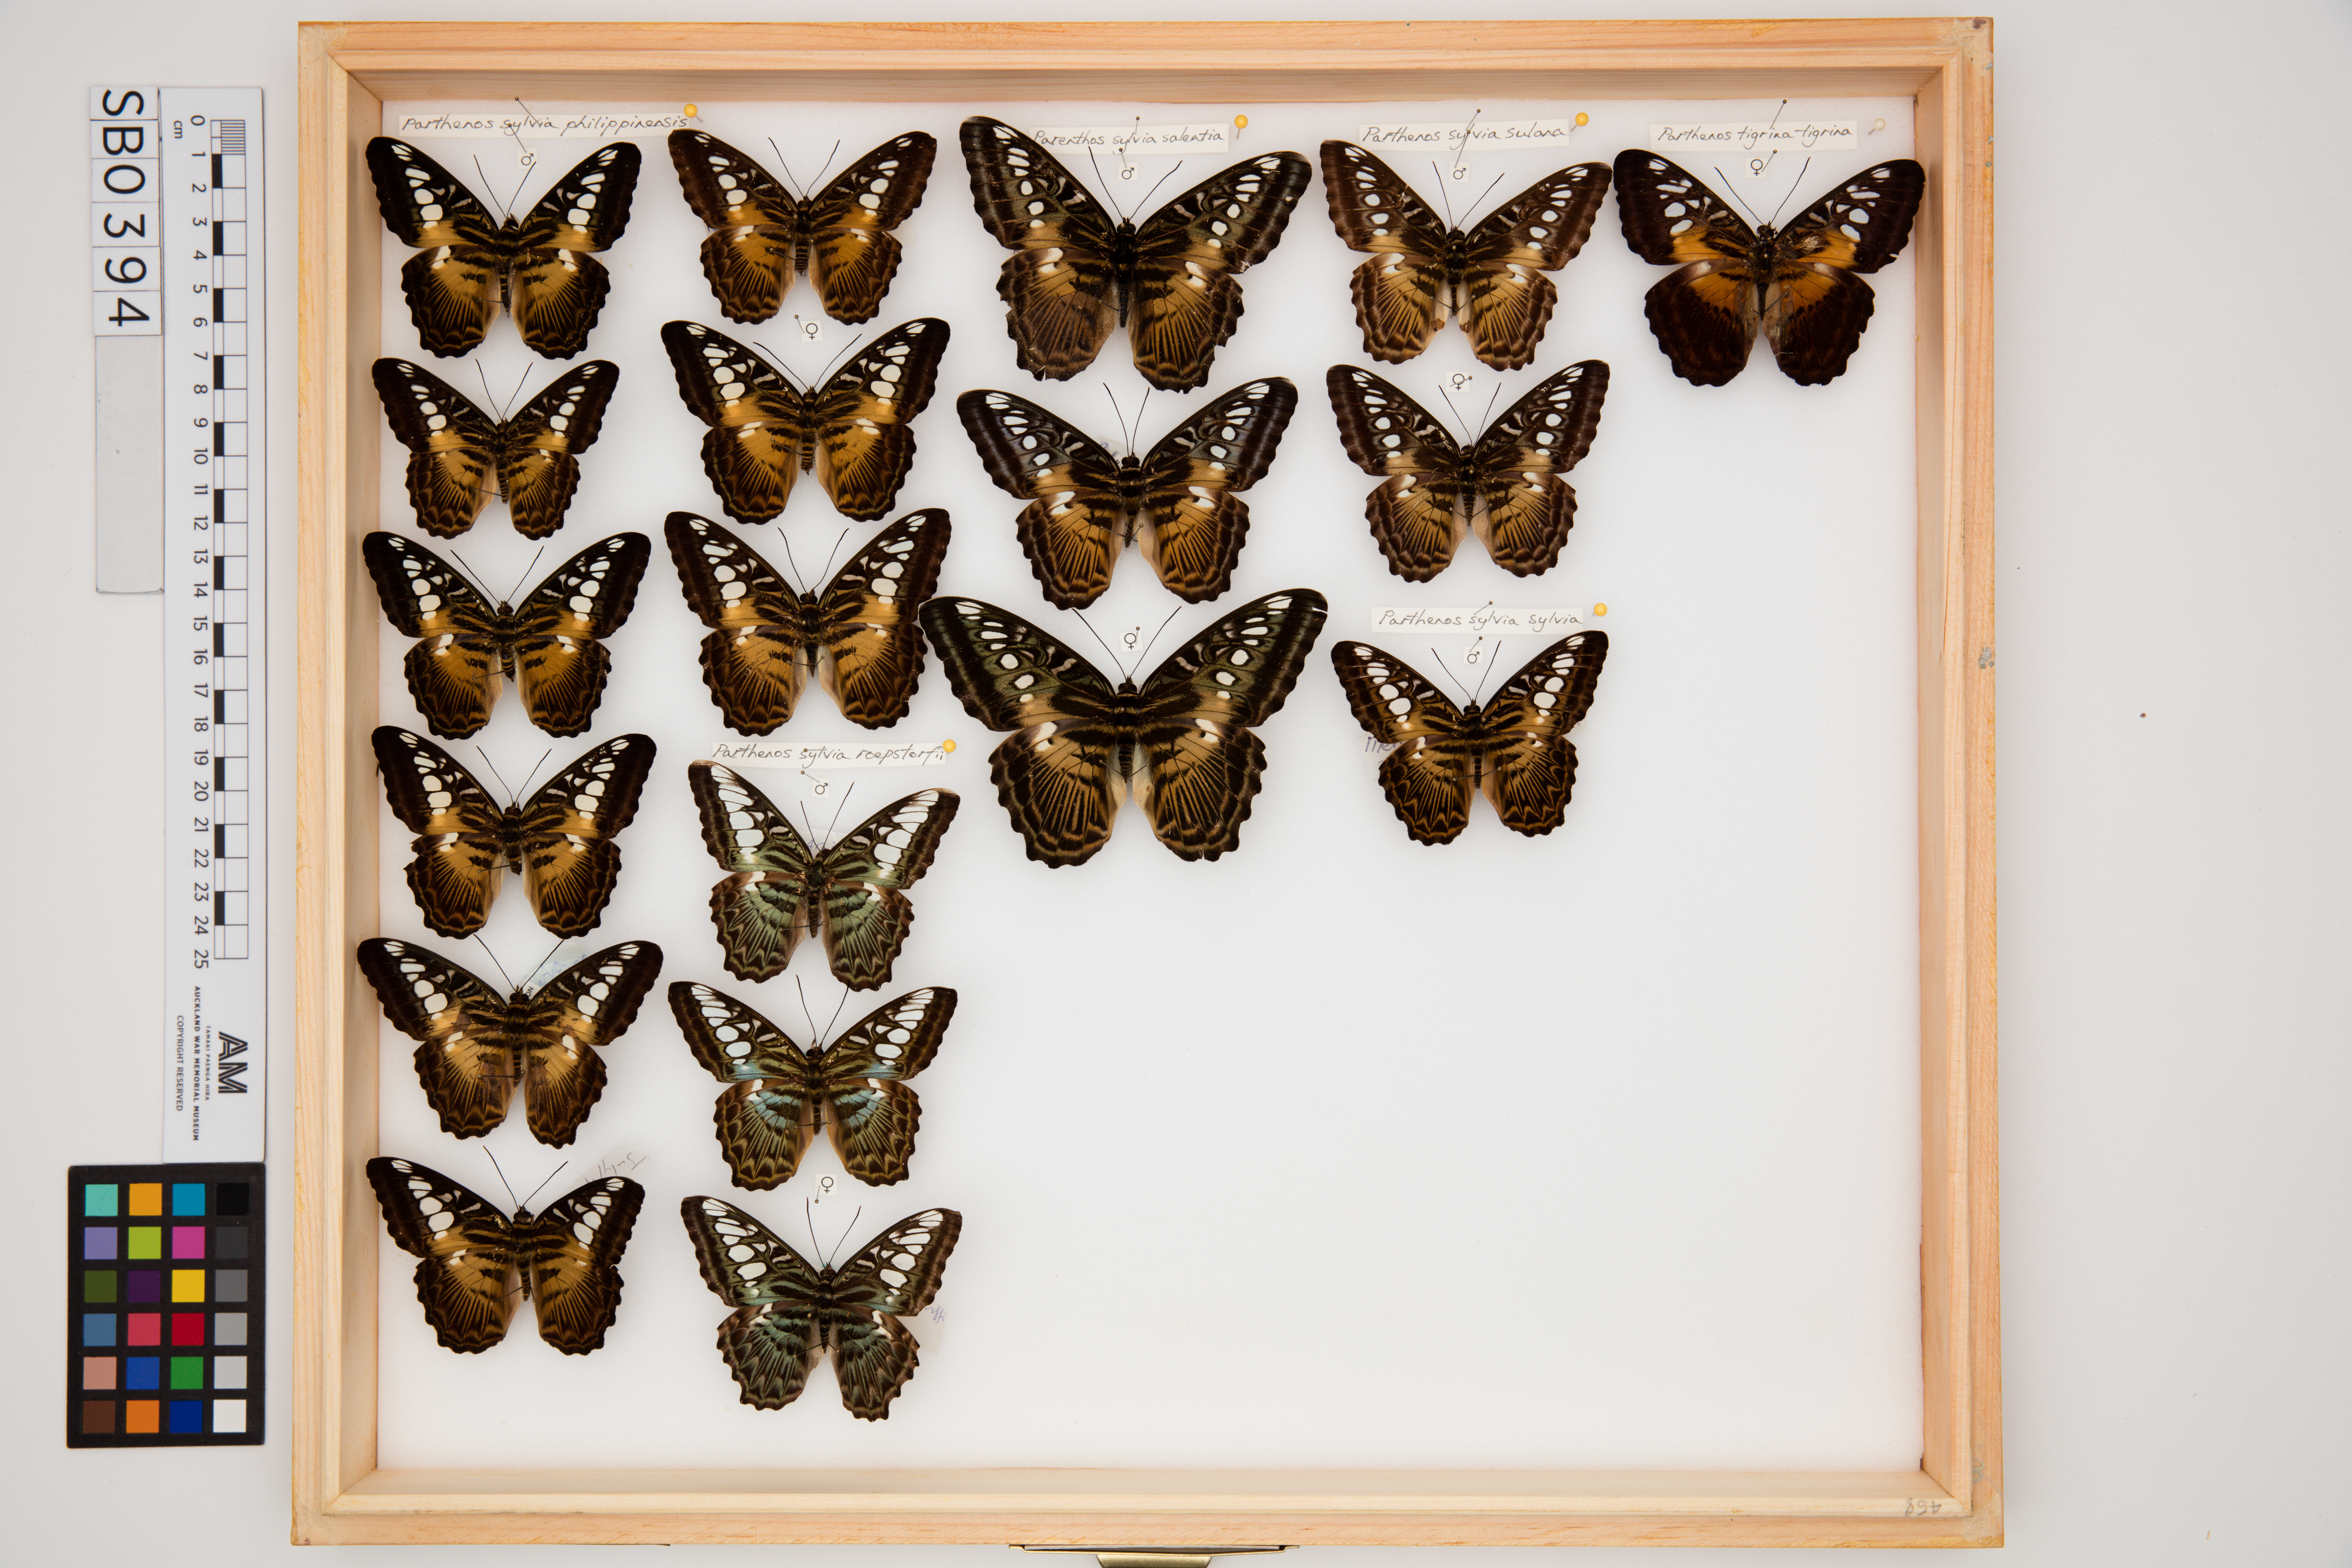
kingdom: Animalia
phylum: Arthropoda
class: Insecta
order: Lepidoptera
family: Nymphalidae
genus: Kallima
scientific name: Kallima sylvia
